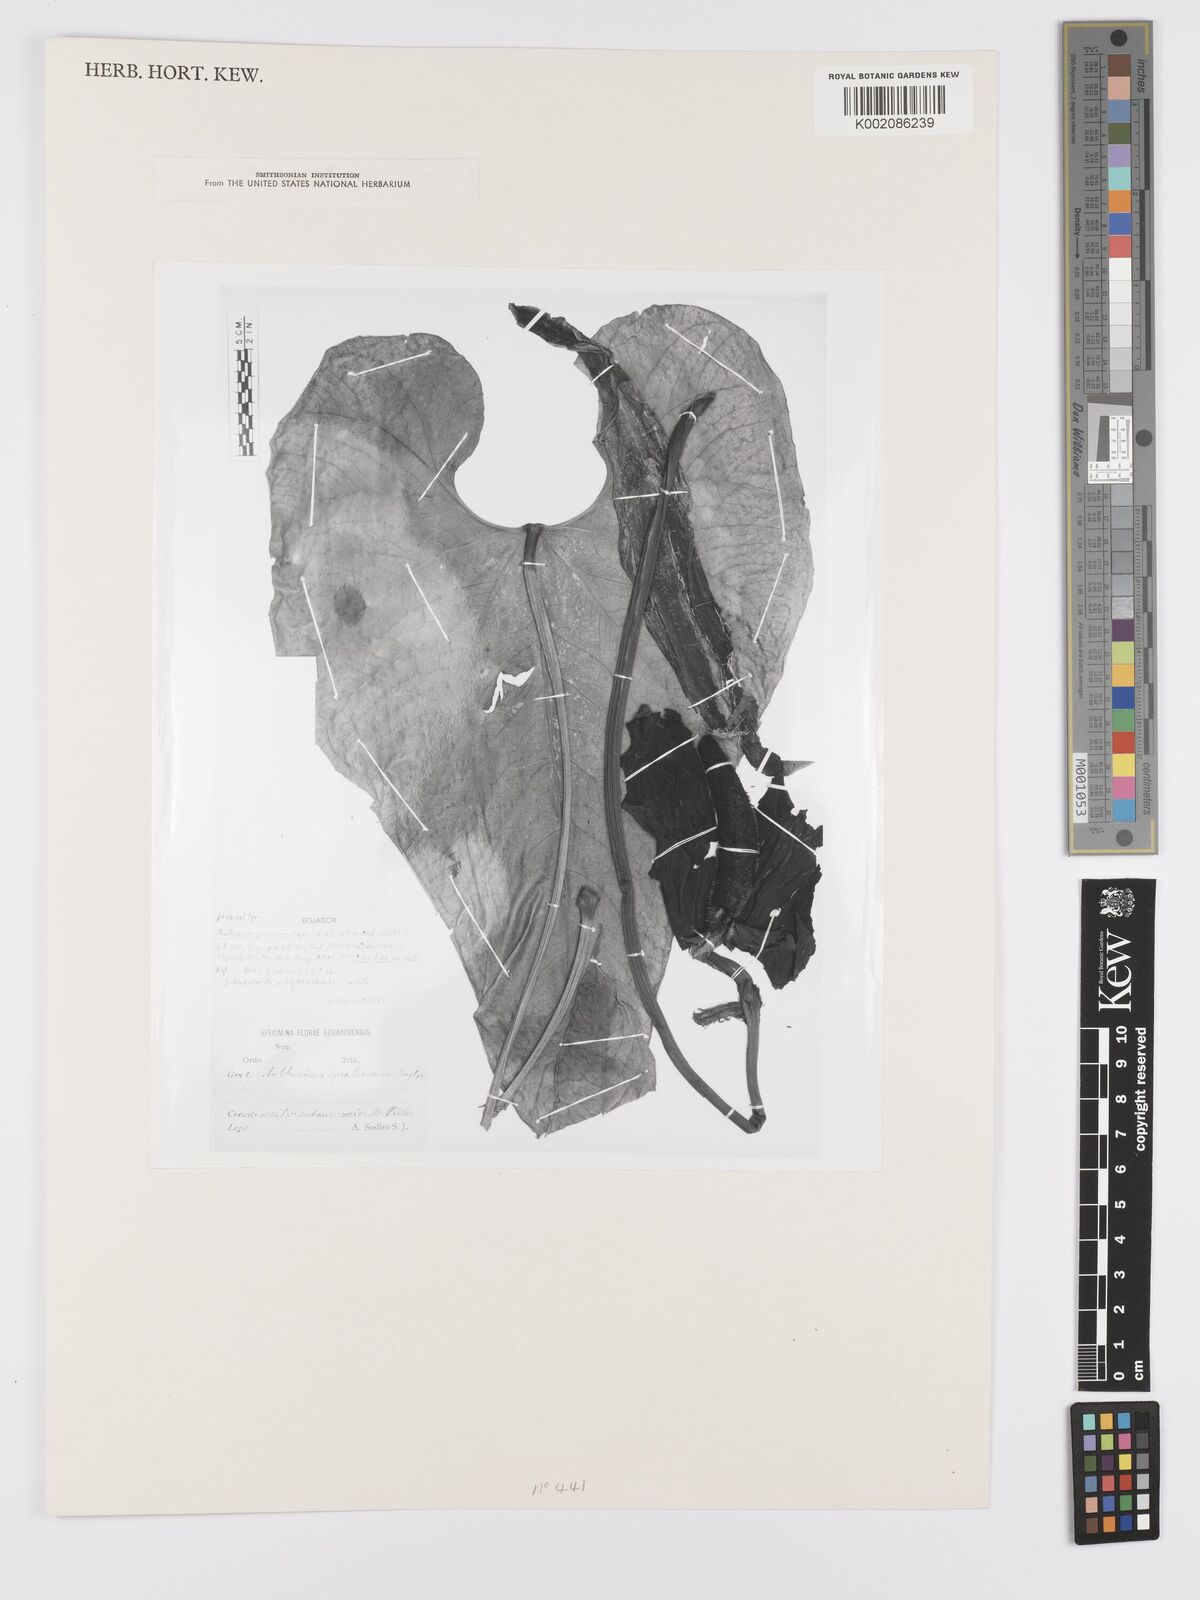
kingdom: Plantae
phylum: Tracheophyta
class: Liliopsida
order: Alismatales
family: Araceae
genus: Anthurium
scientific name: Anthurium gualeanum
